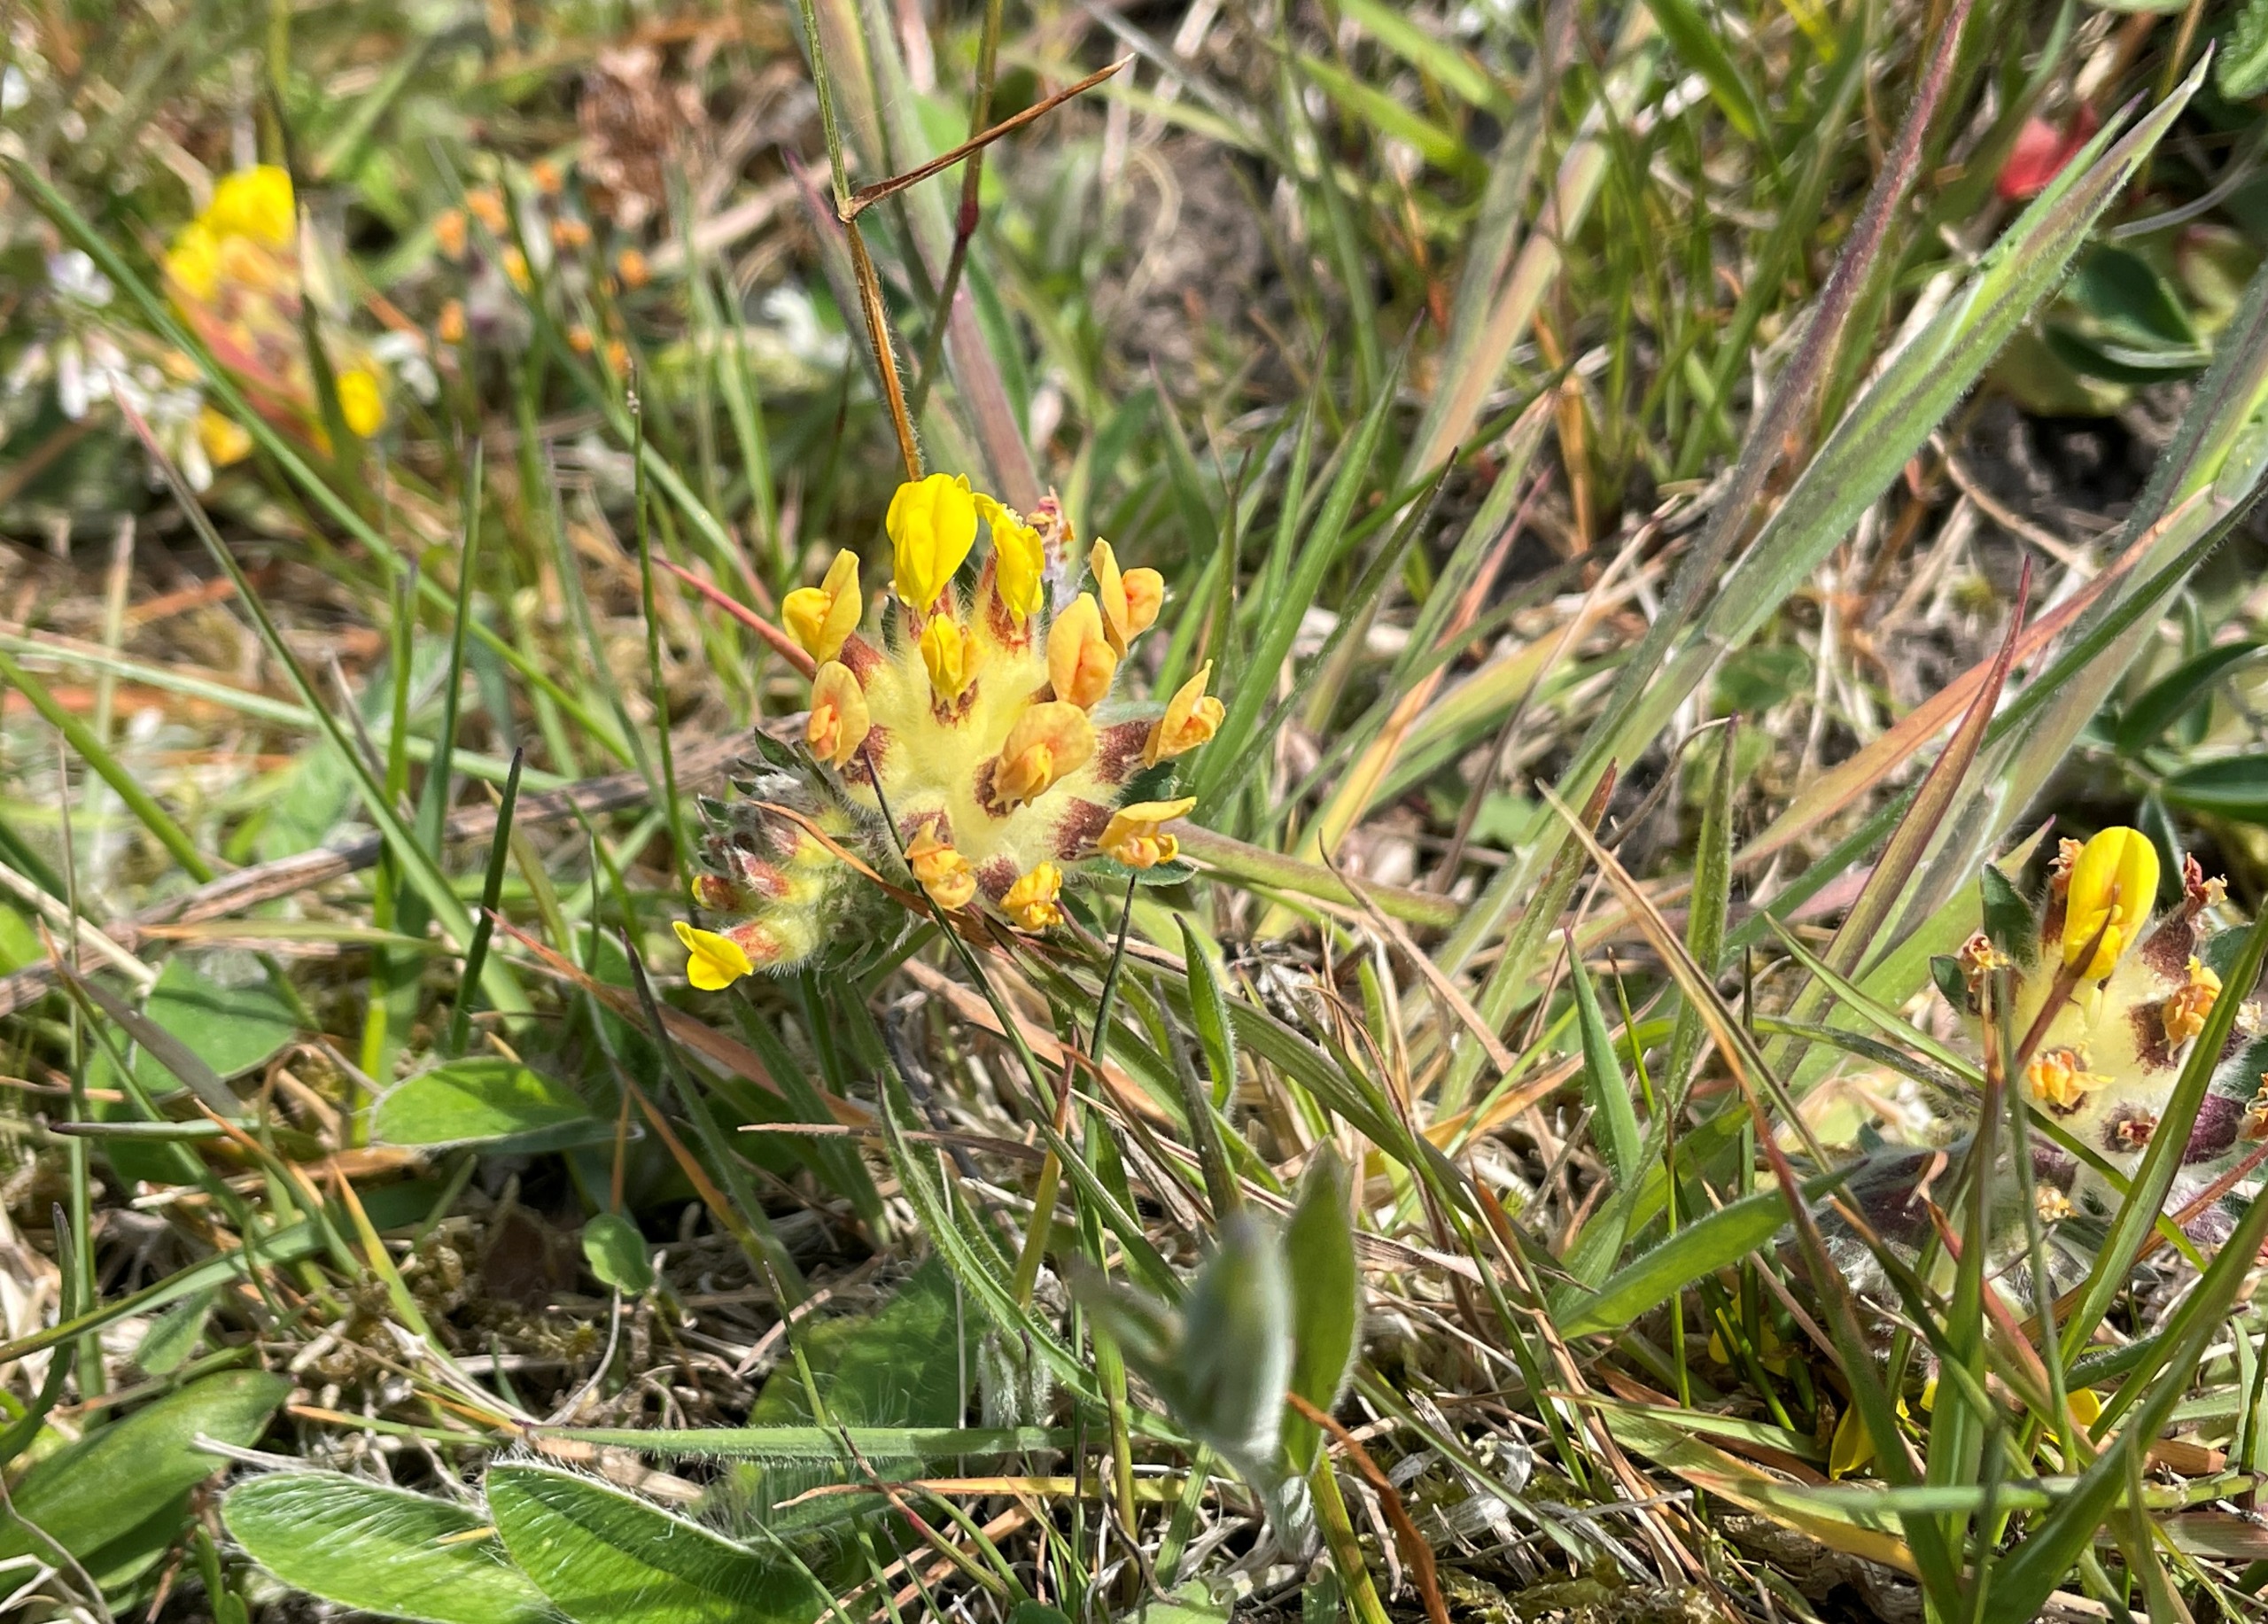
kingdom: Plantae
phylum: Tracheophyta
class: Magnoliopsida
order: Fabales
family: Fabaceae
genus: Anthyllis
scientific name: Anthyllis vulneraria
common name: Rundbælg
